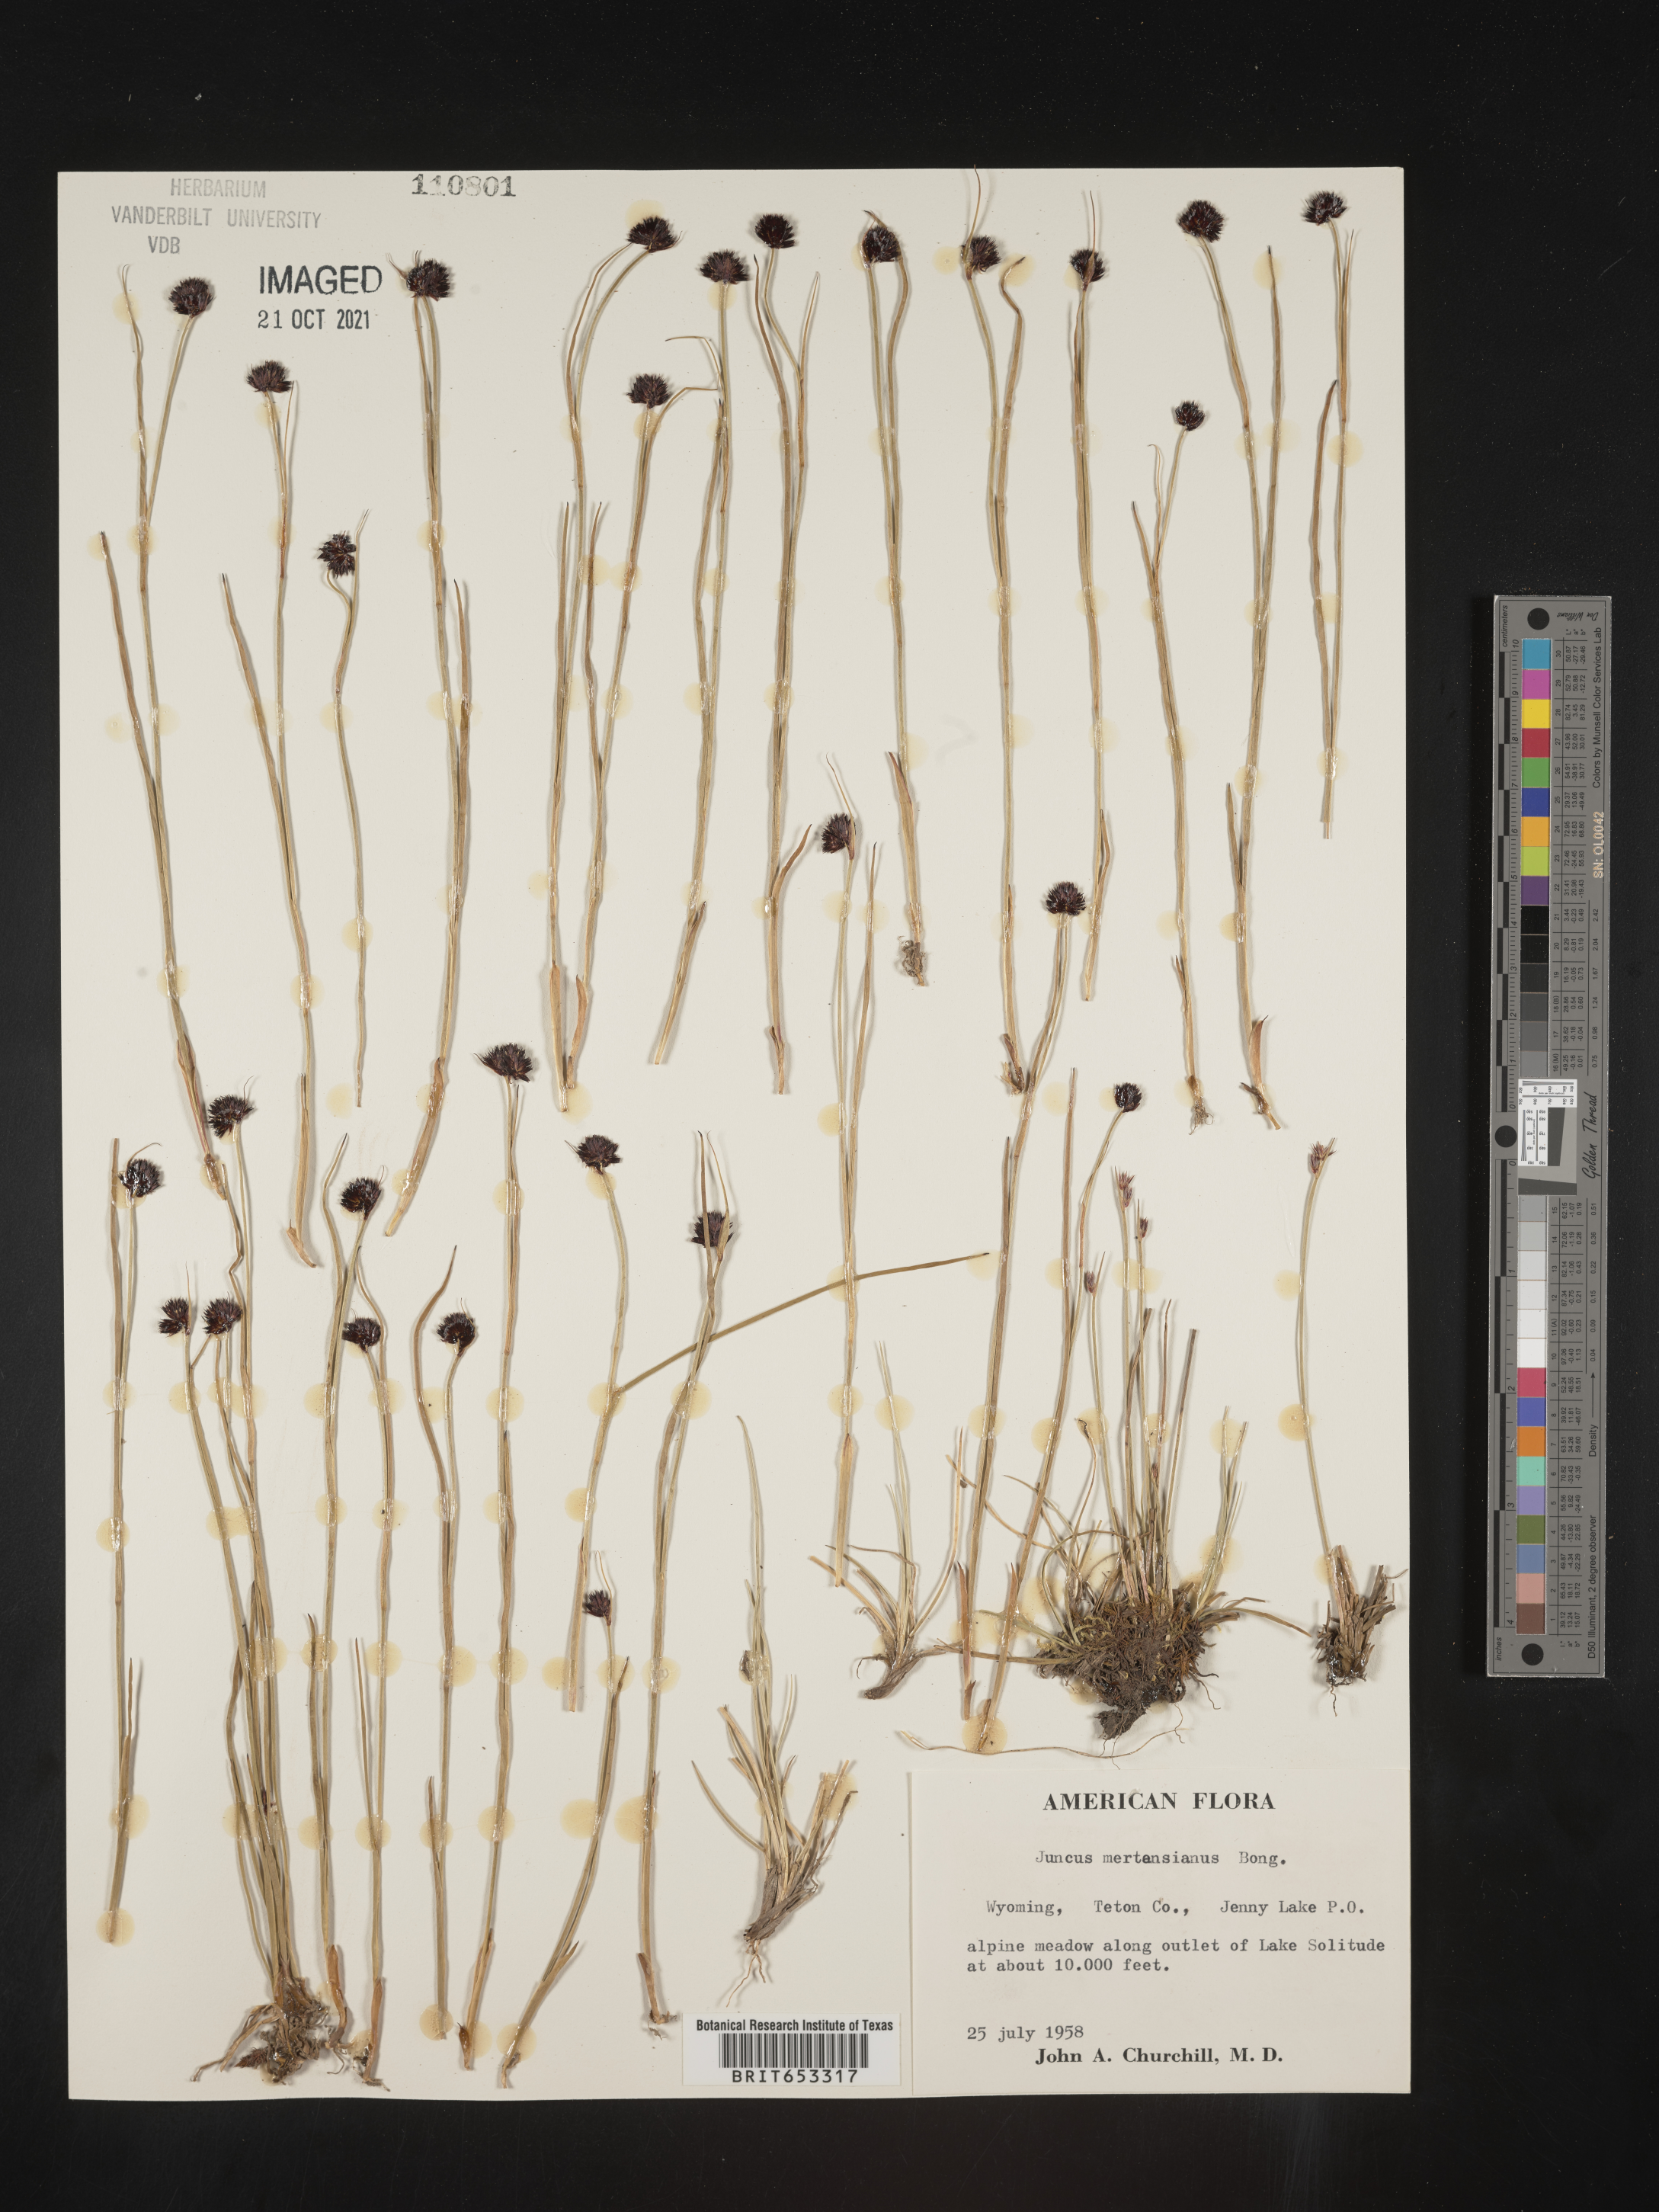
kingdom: Plantae
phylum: Tracheophyta
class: Liliopsida
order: Poales
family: Juncaceae
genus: Juncus
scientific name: Juncus mertensianus
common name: Merten's rush
